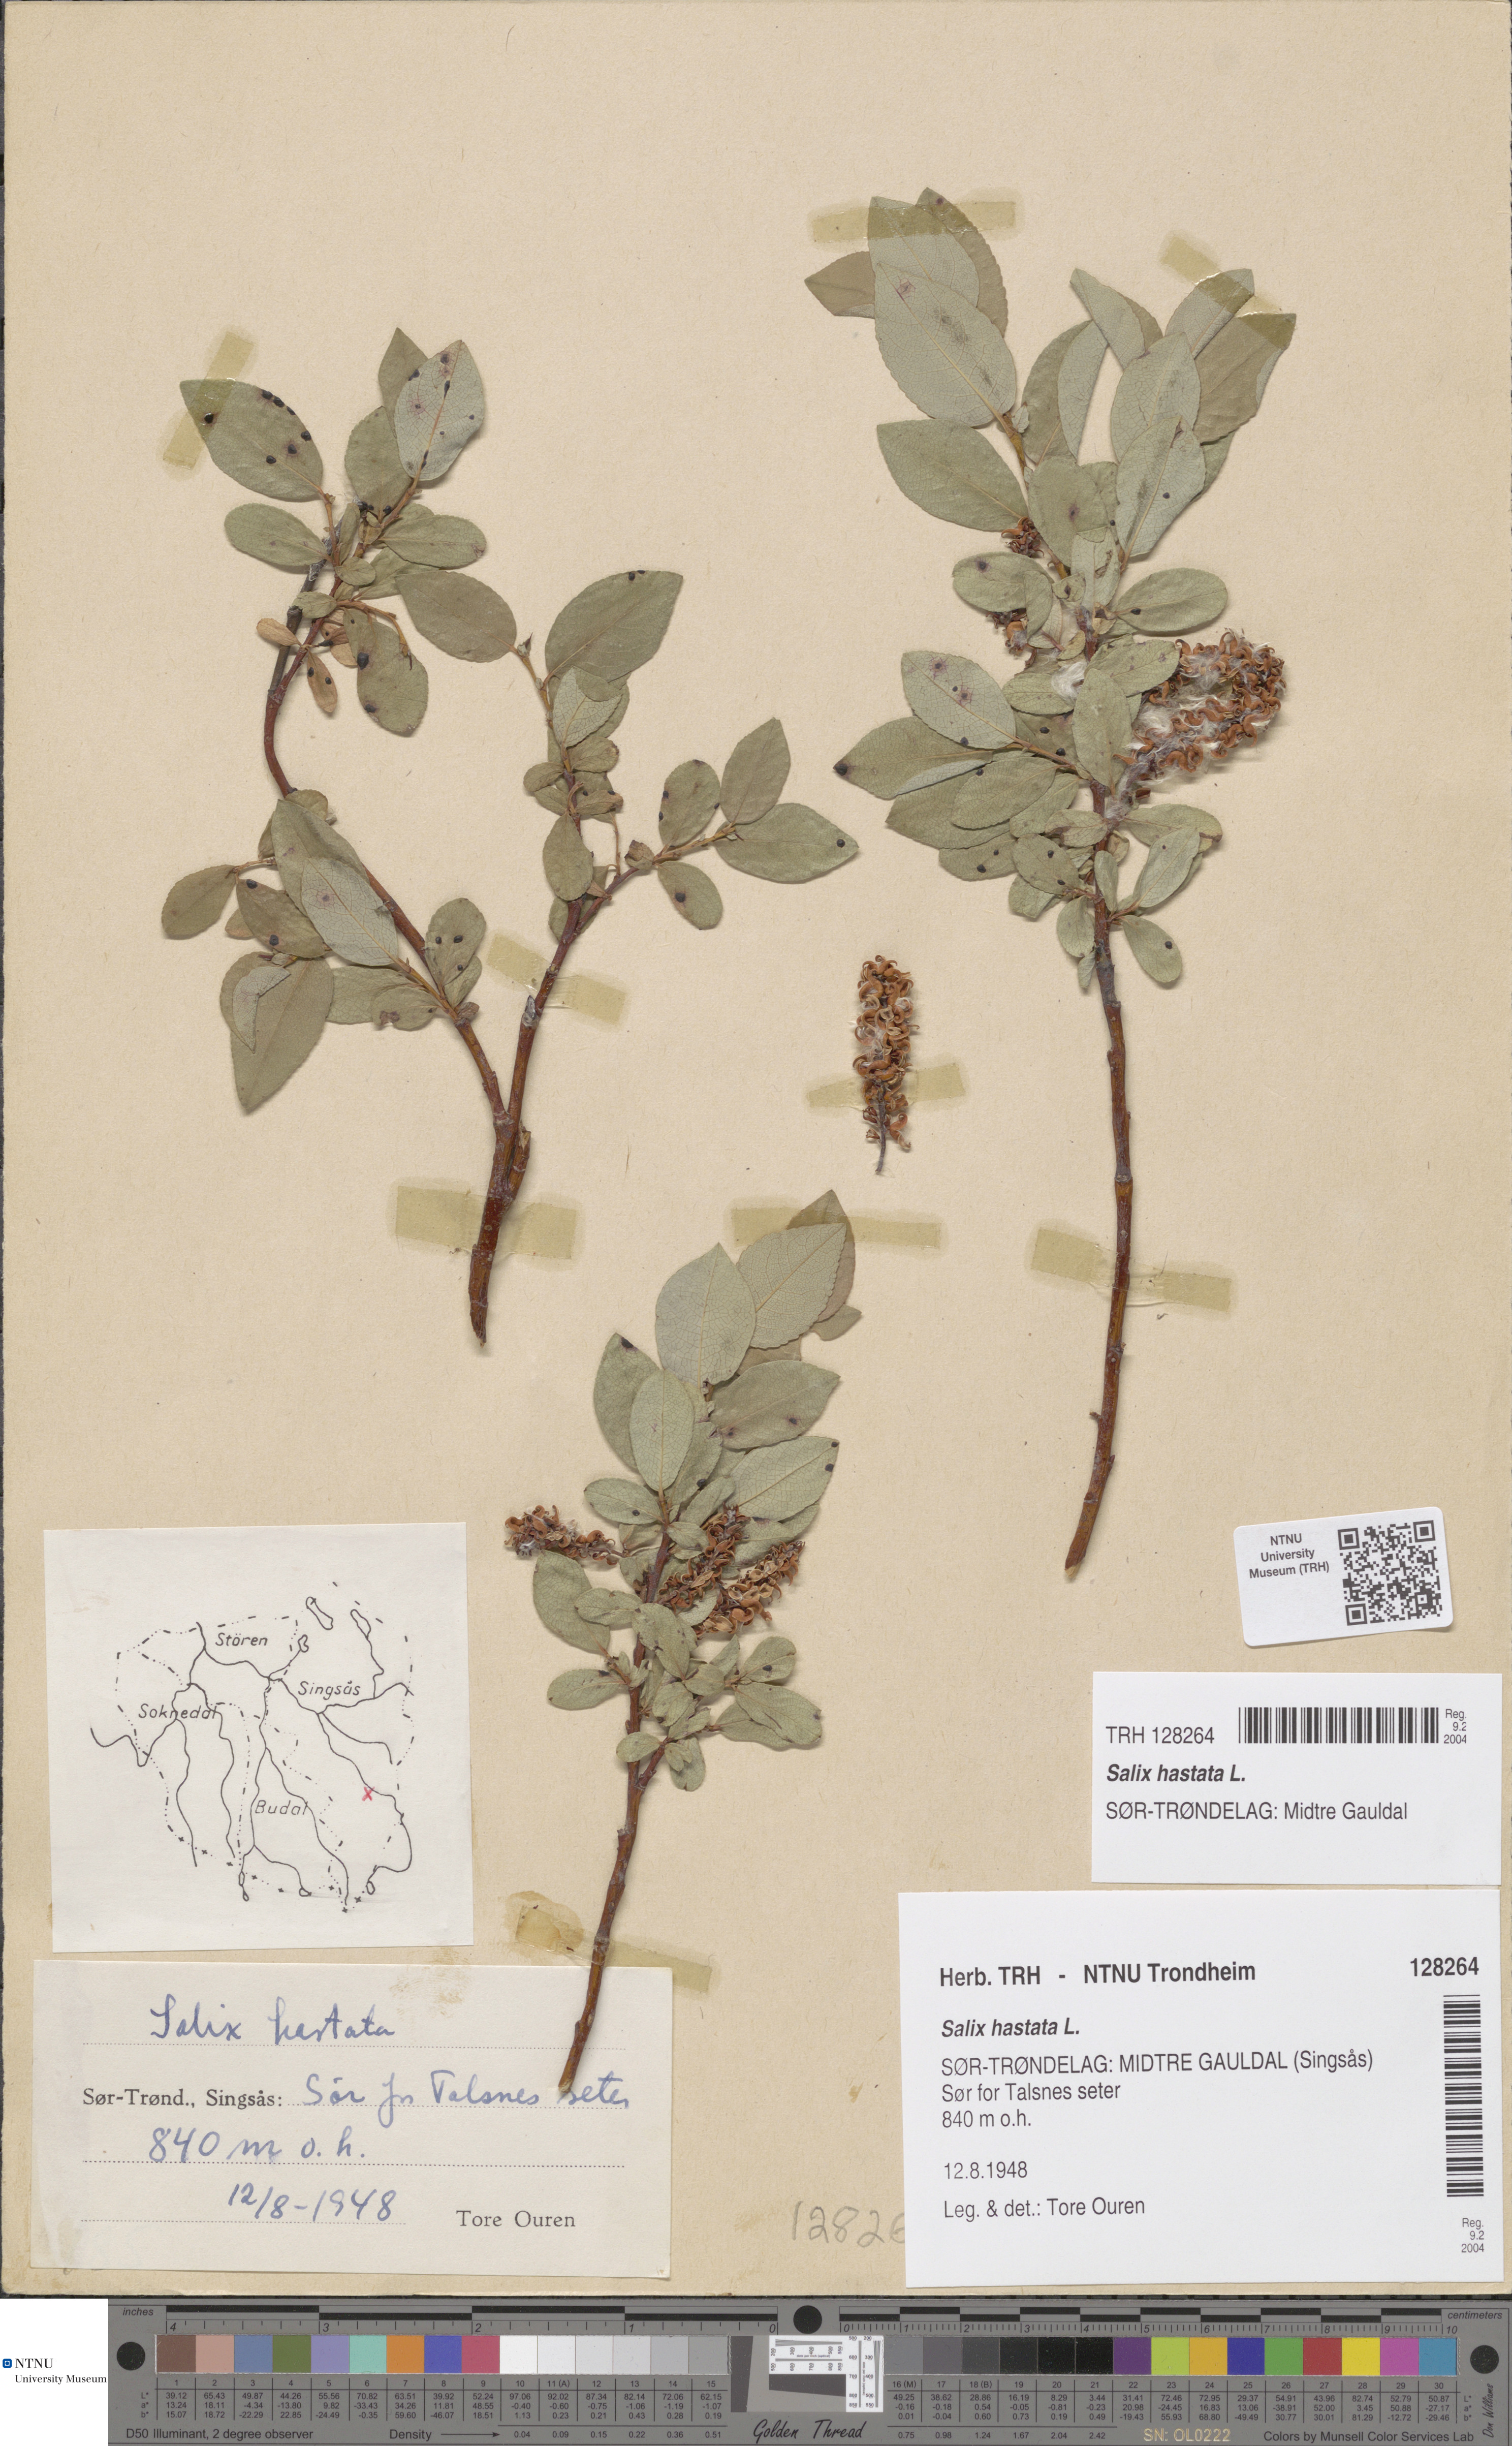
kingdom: Plantae
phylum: Tracheophyta
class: Magnoliopsida
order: Malpighiales
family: Salicaceae
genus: Salix
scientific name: Salix hastata
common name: Halberd willow
